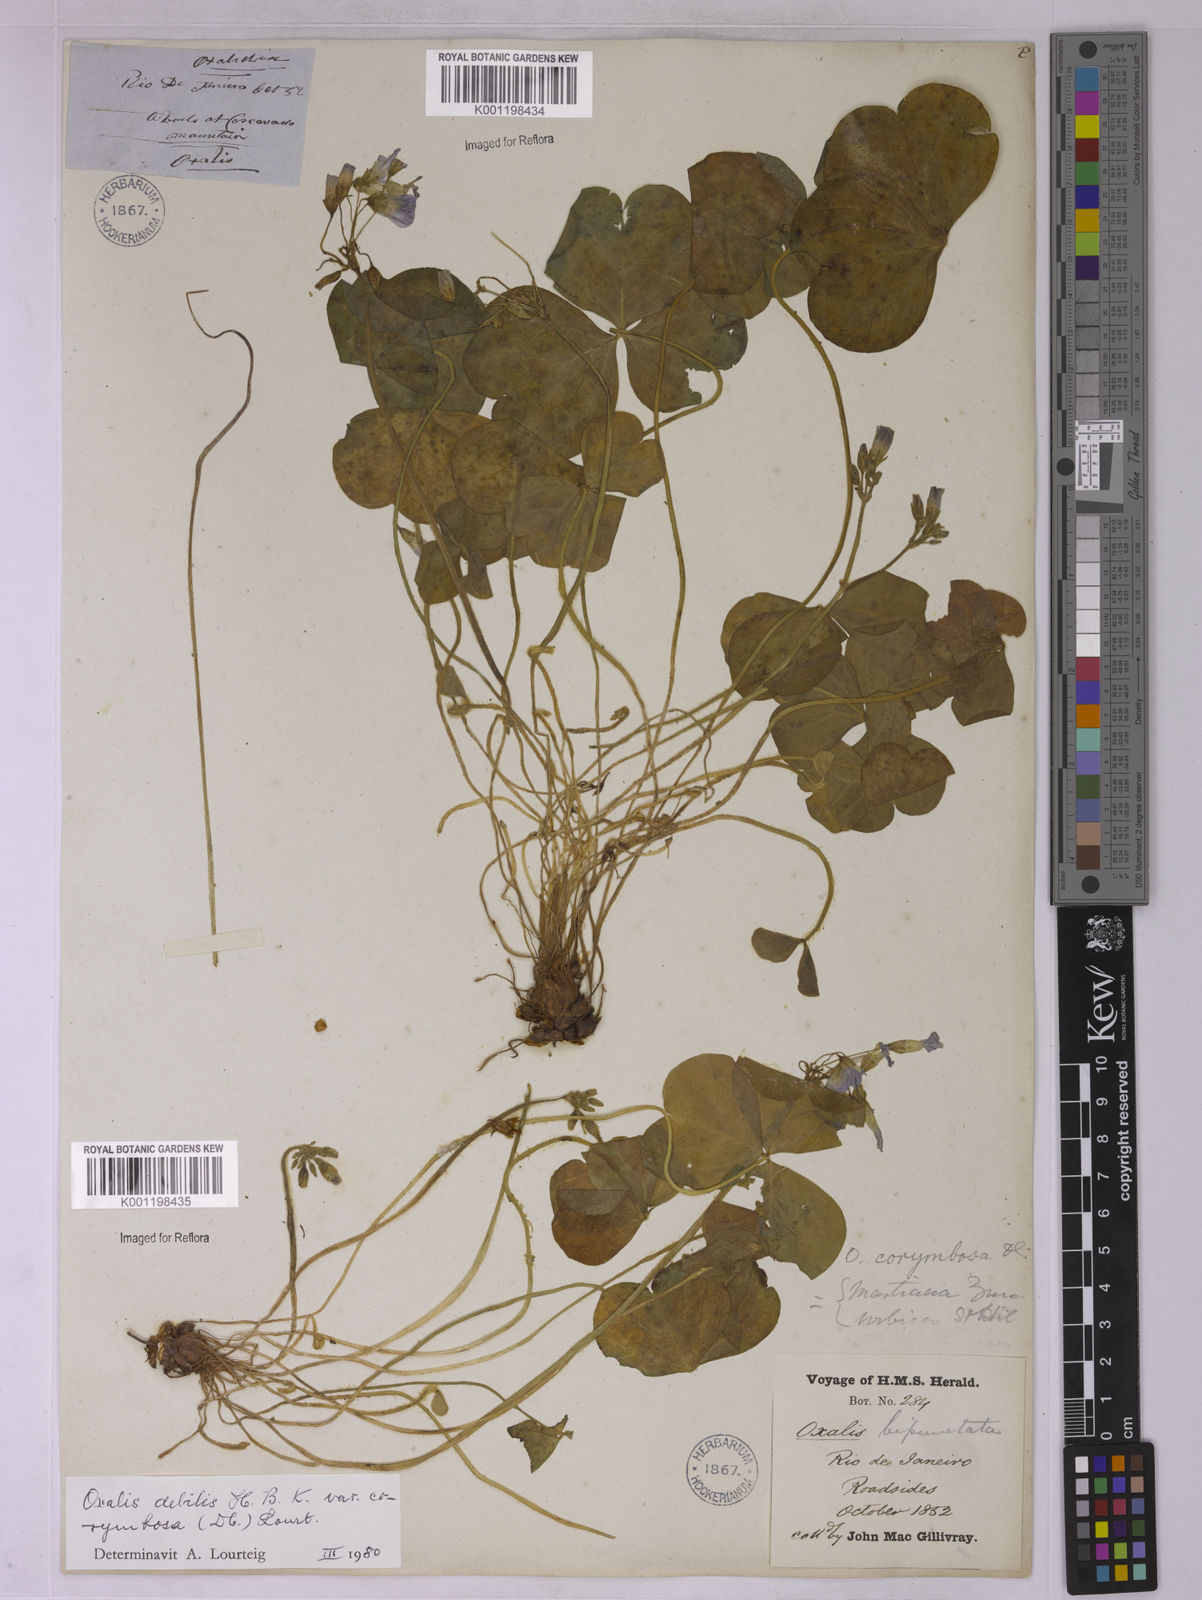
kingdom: Plantae
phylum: Tracheophyta
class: Magnoliopsida
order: Oxalidales
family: Oxalidaceae
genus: Oxalis
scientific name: Oxalis debilis
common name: Large-flowered pink-sorrel
